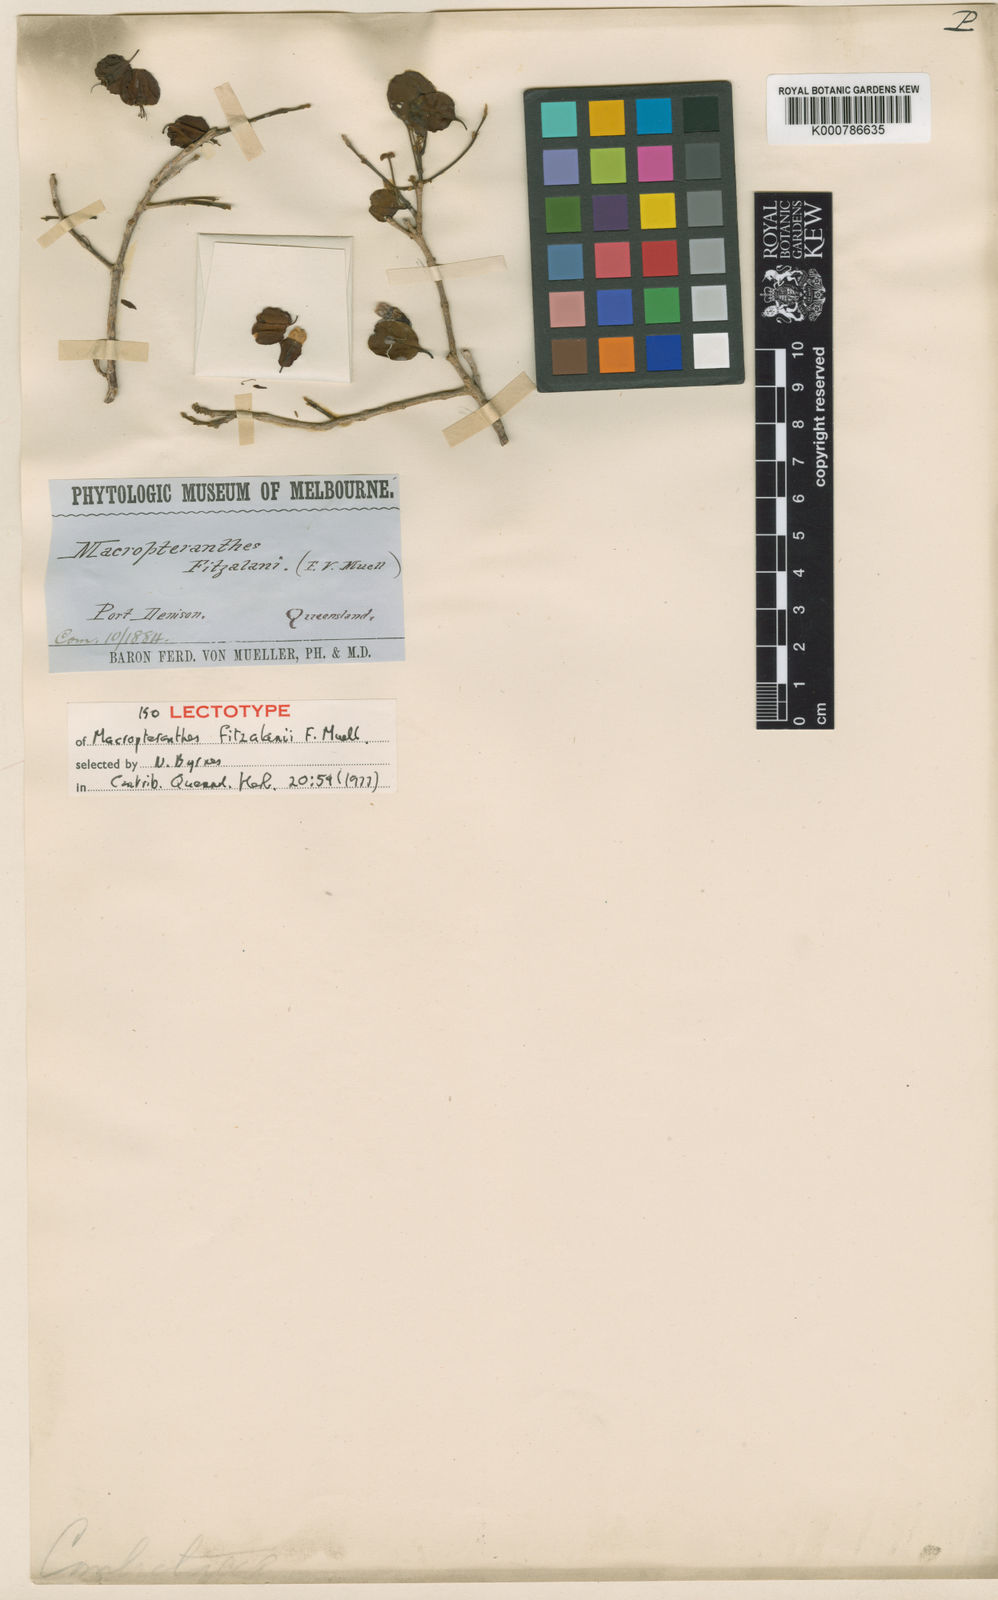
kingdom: Plantae
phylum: Tracheophyta
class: Magnoliopsida
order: Myrtales
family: Combretaceae
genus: Macropteranthes
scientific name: Macropteranthes fitzalanii
